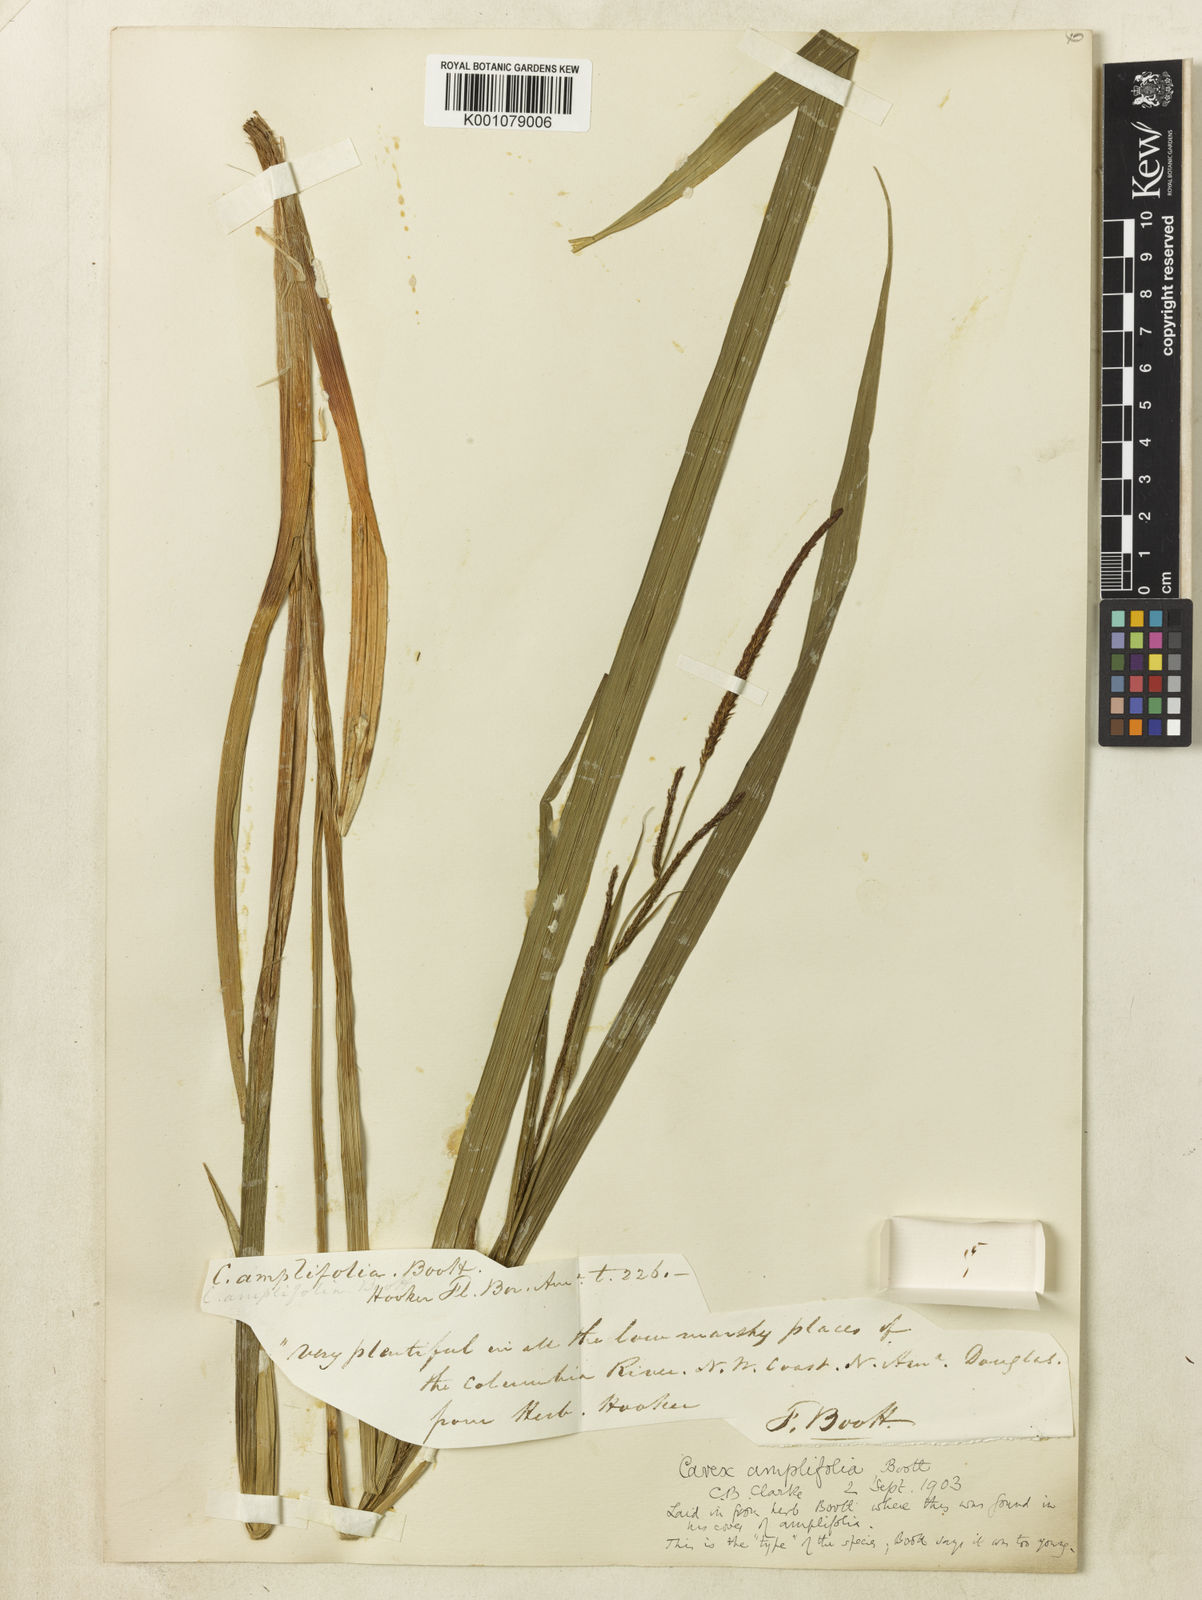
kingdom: Plantae
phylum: Tracheophyta
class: Liliopsida
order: Poales
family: Cyperaceae
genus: Carex
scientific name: Carex amplifolia
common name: Ample-leaved sedge
